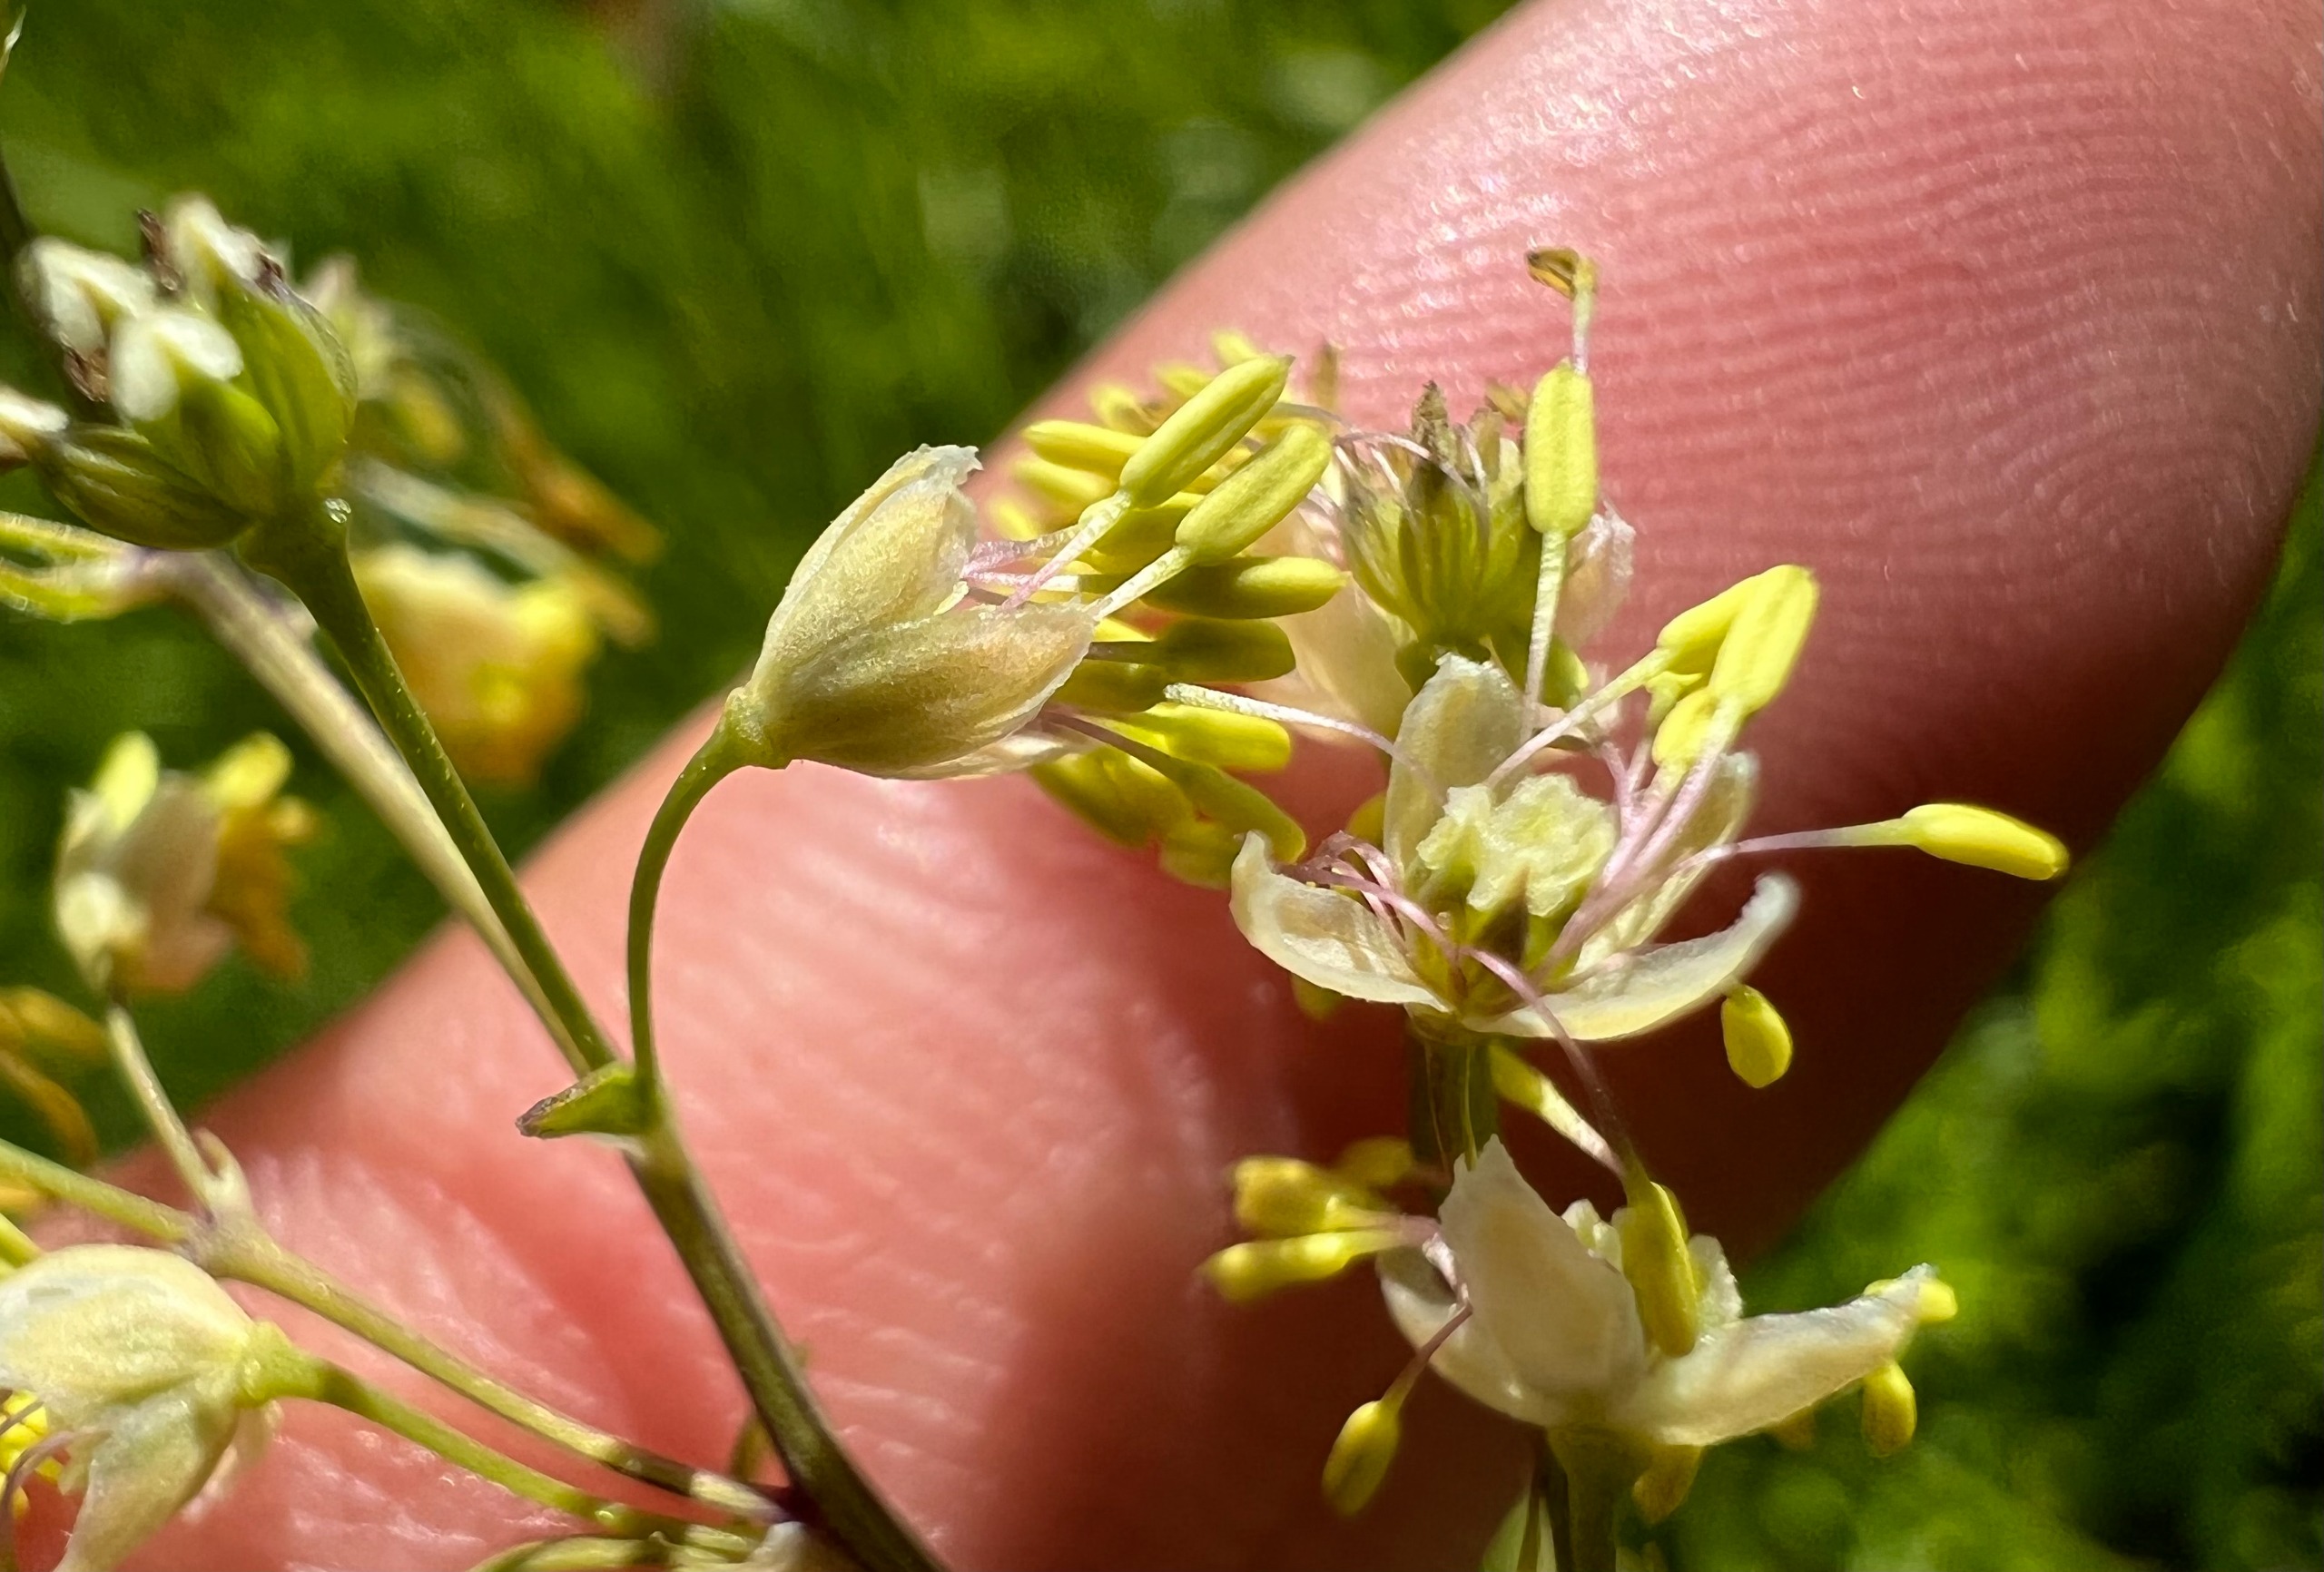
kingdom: Plantae
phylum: Tracheophyta
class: Magnoliopsida
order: Ranunculales
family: Ranunculaceae
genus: Thalictrum
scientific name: Thalictrum simplex
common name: Rank frøstjerne
